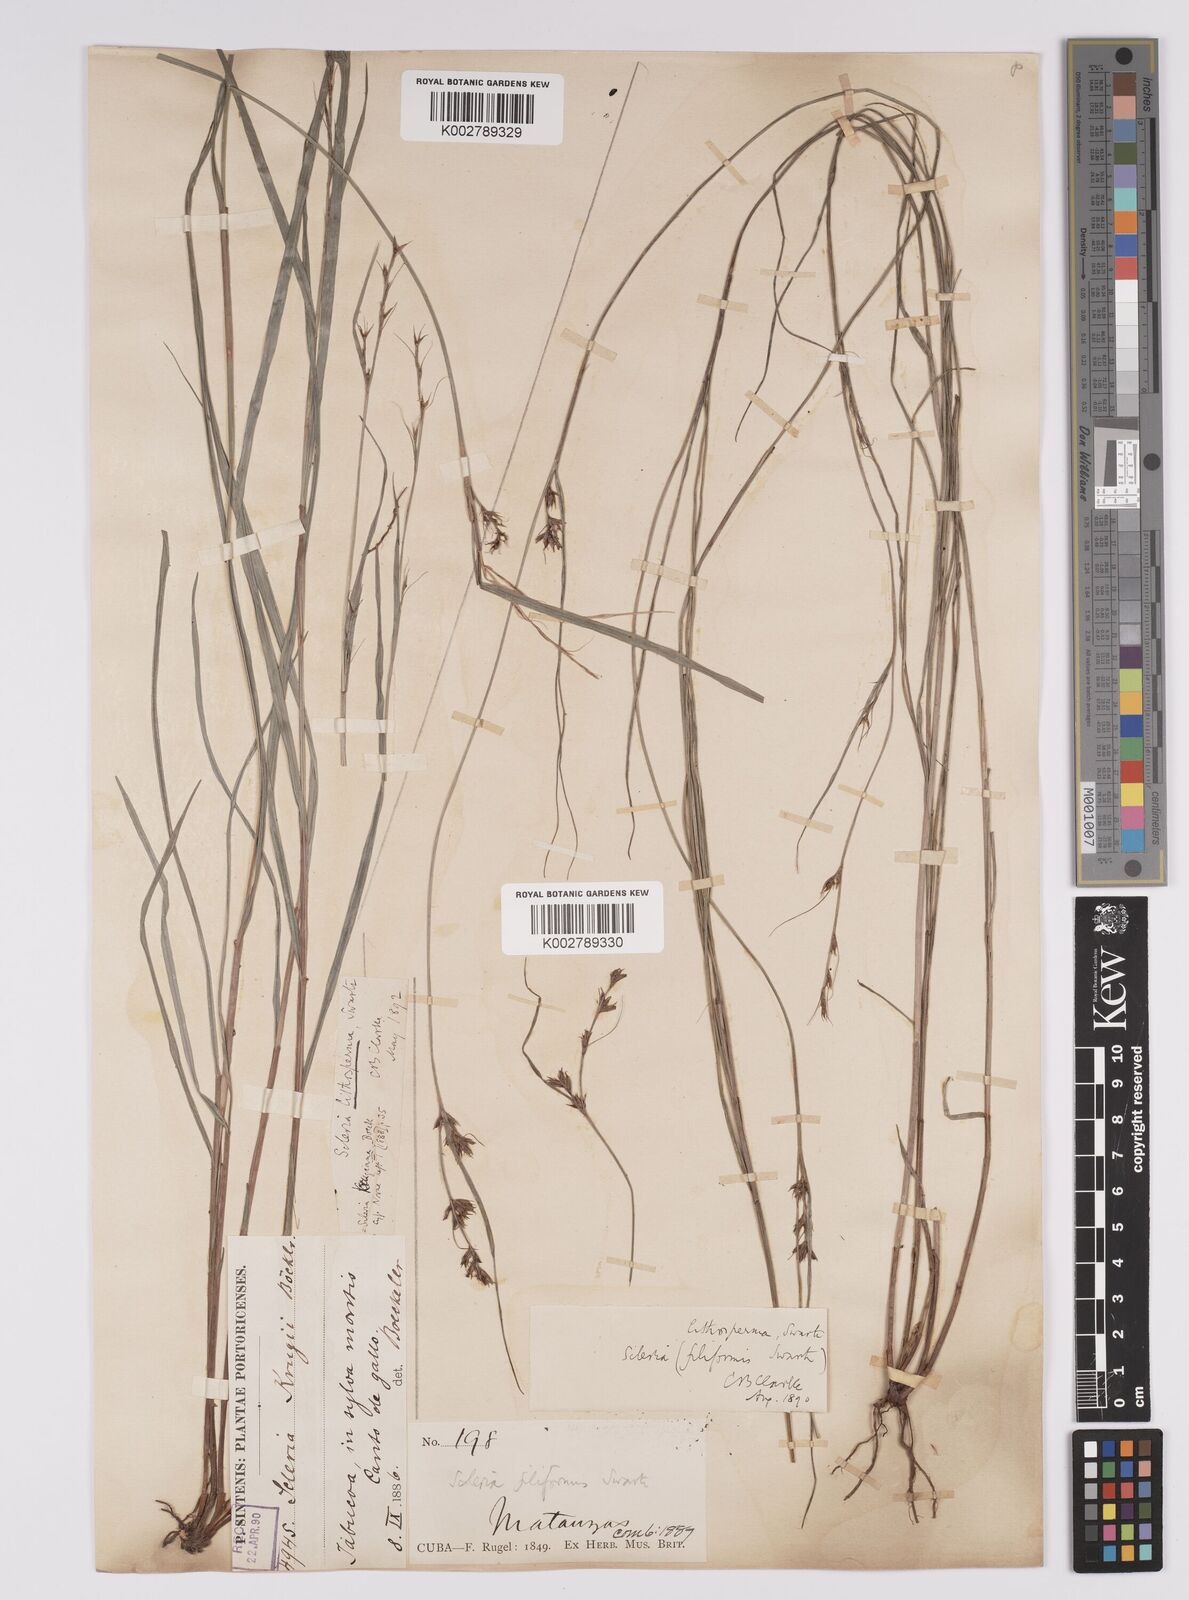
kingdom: Plantae
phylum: Tracheophyta
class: Liliopsida
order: Poales
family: Cyperaceae
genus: Scleria
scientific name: Scleria lithosperma
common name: Florida keys nut-rush
